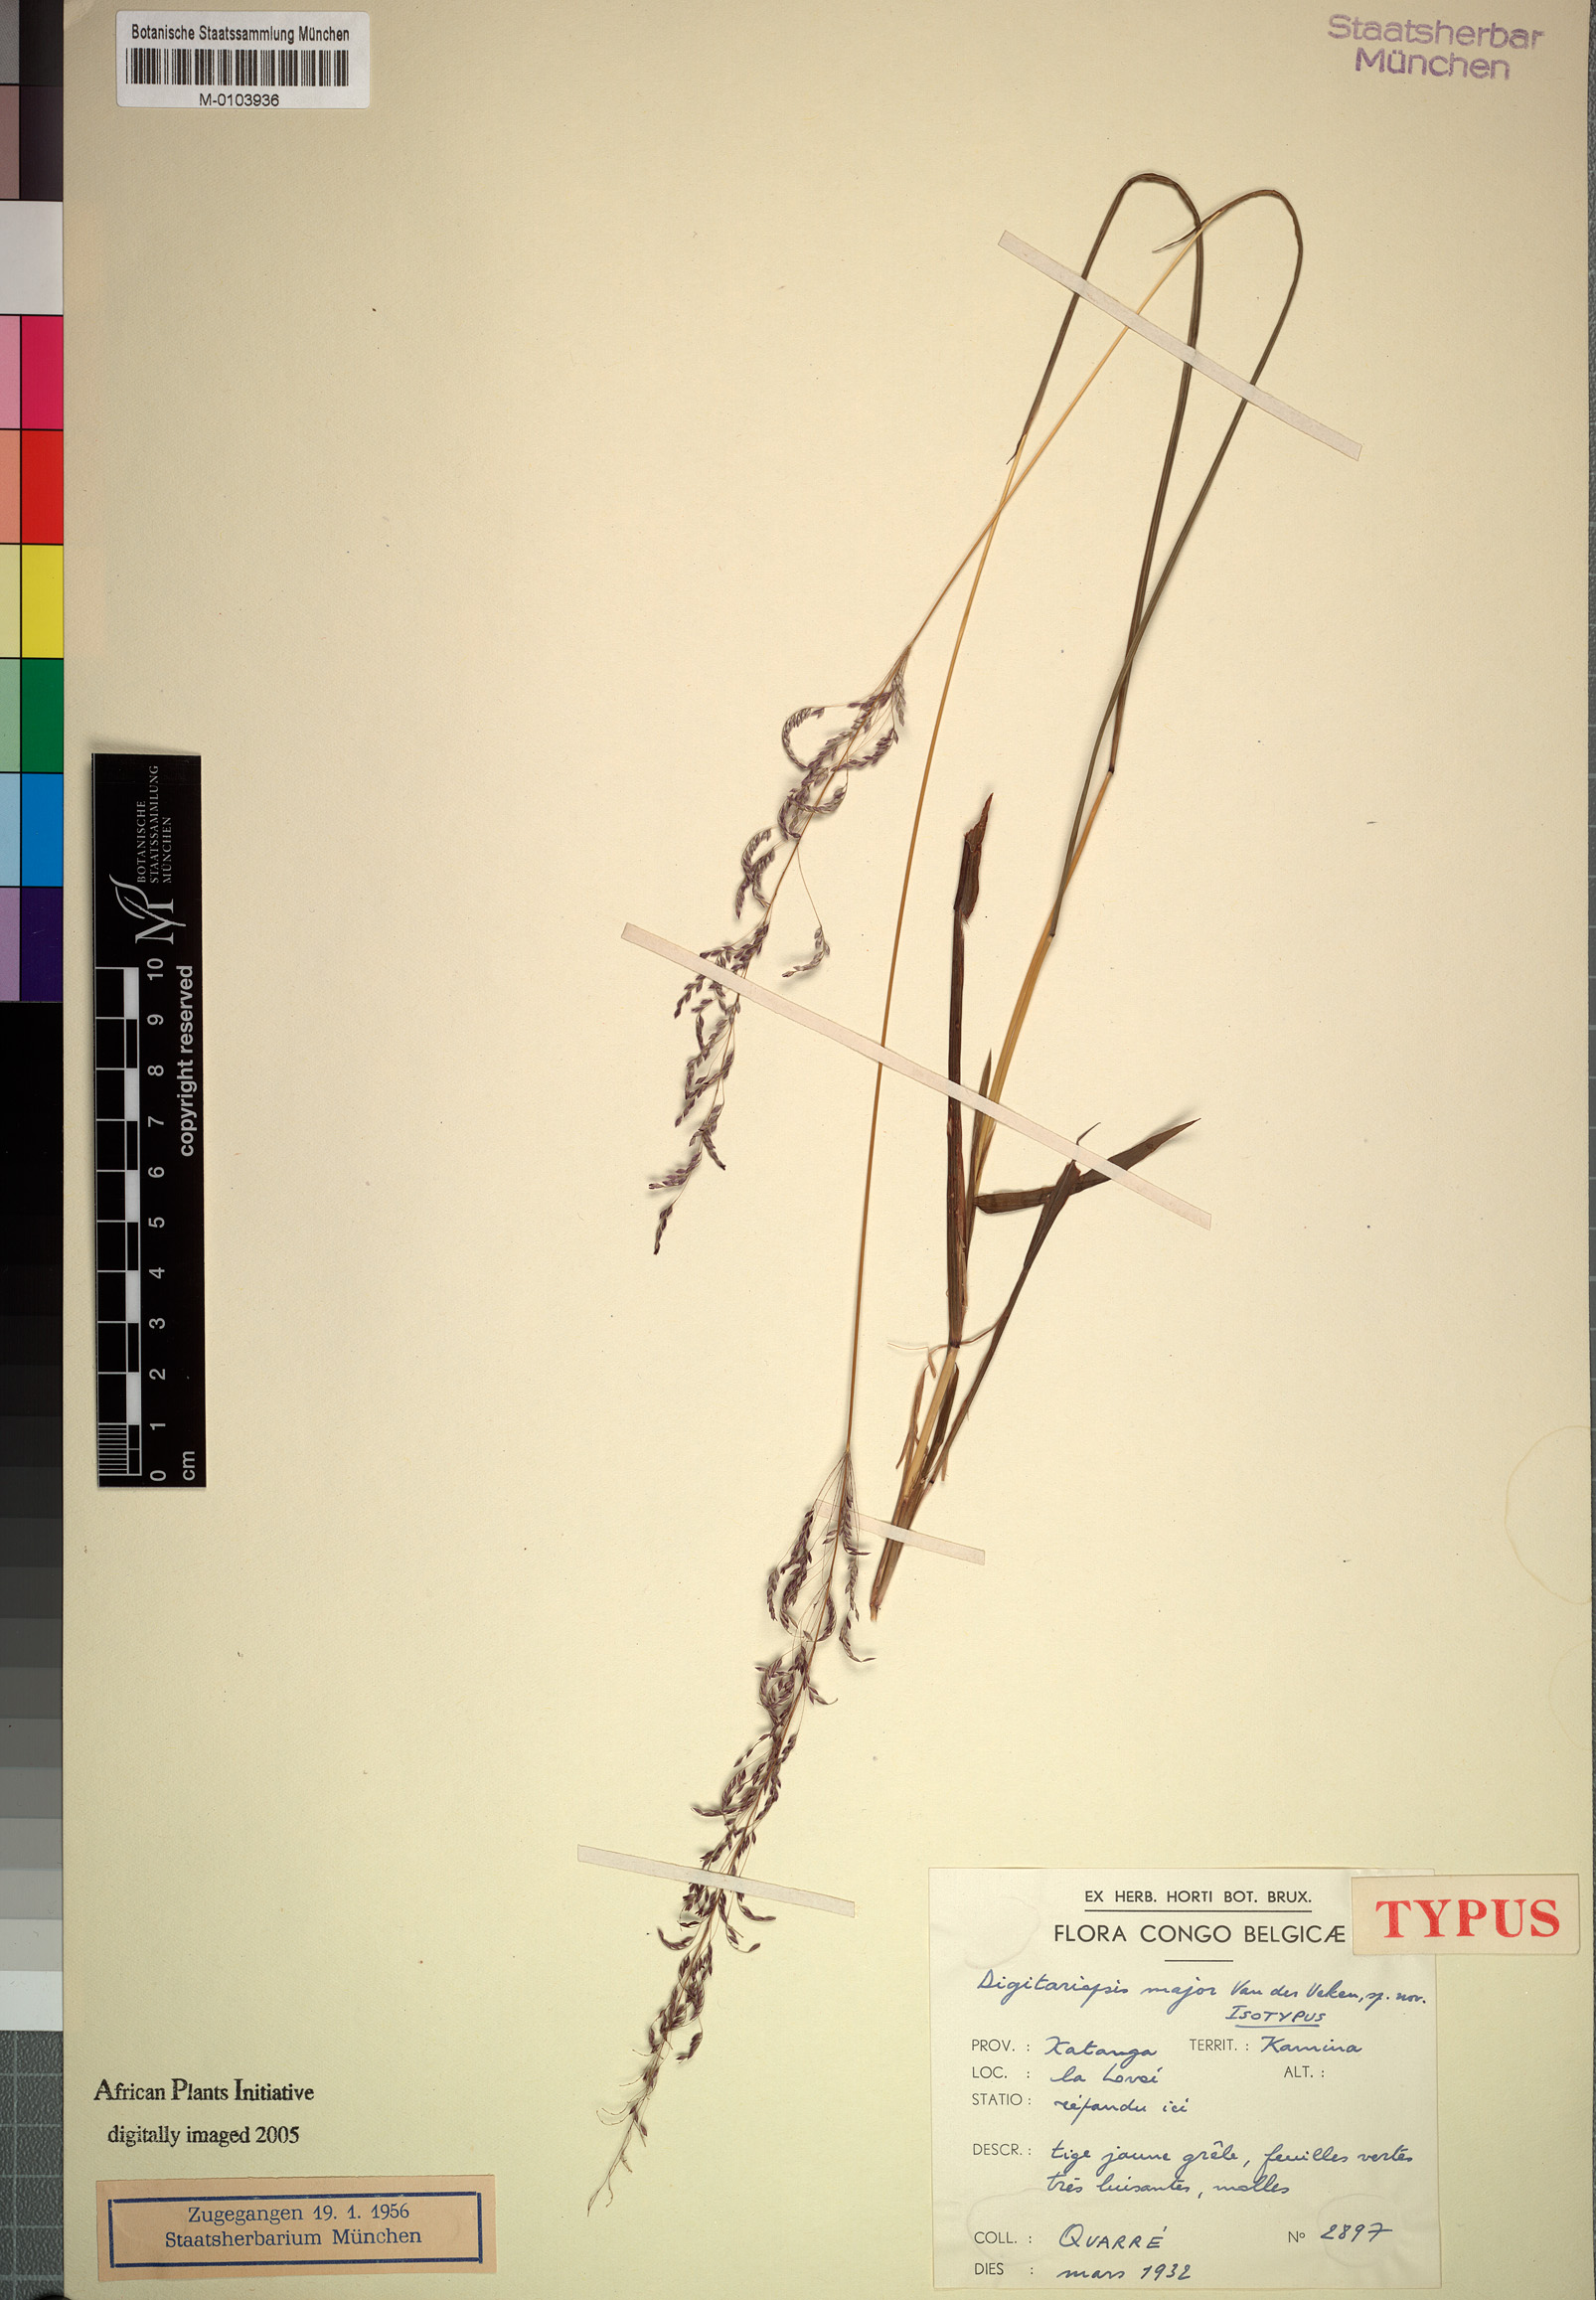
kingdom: Plantae
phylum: Tracheophyta
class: Liliopsida
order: Poales
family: Poaceae
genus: Digitaria
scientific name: Digitaria poggeana
